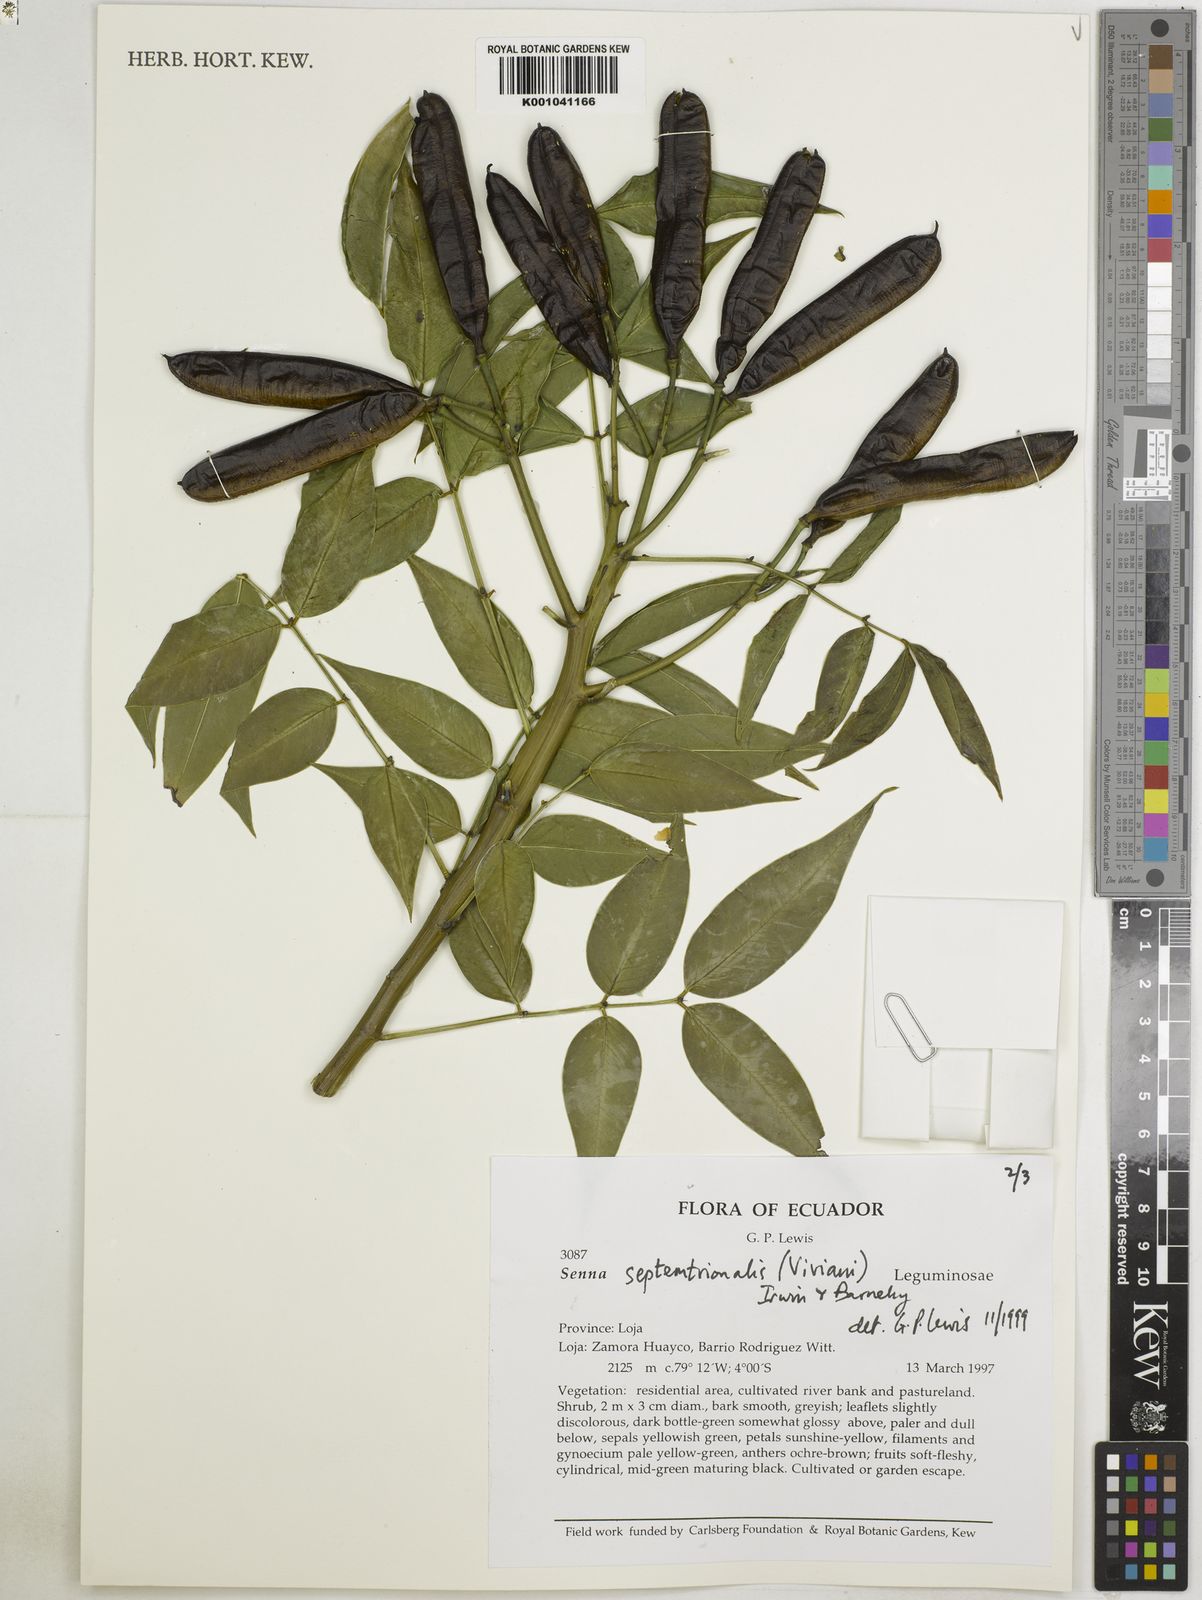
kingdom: Plantae
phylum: Tracheophyta
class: Magnoliopsida
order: Fabales
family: Fabaceae
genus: Senna
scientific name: Senna septemtrionalis
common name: Arsenic bush
